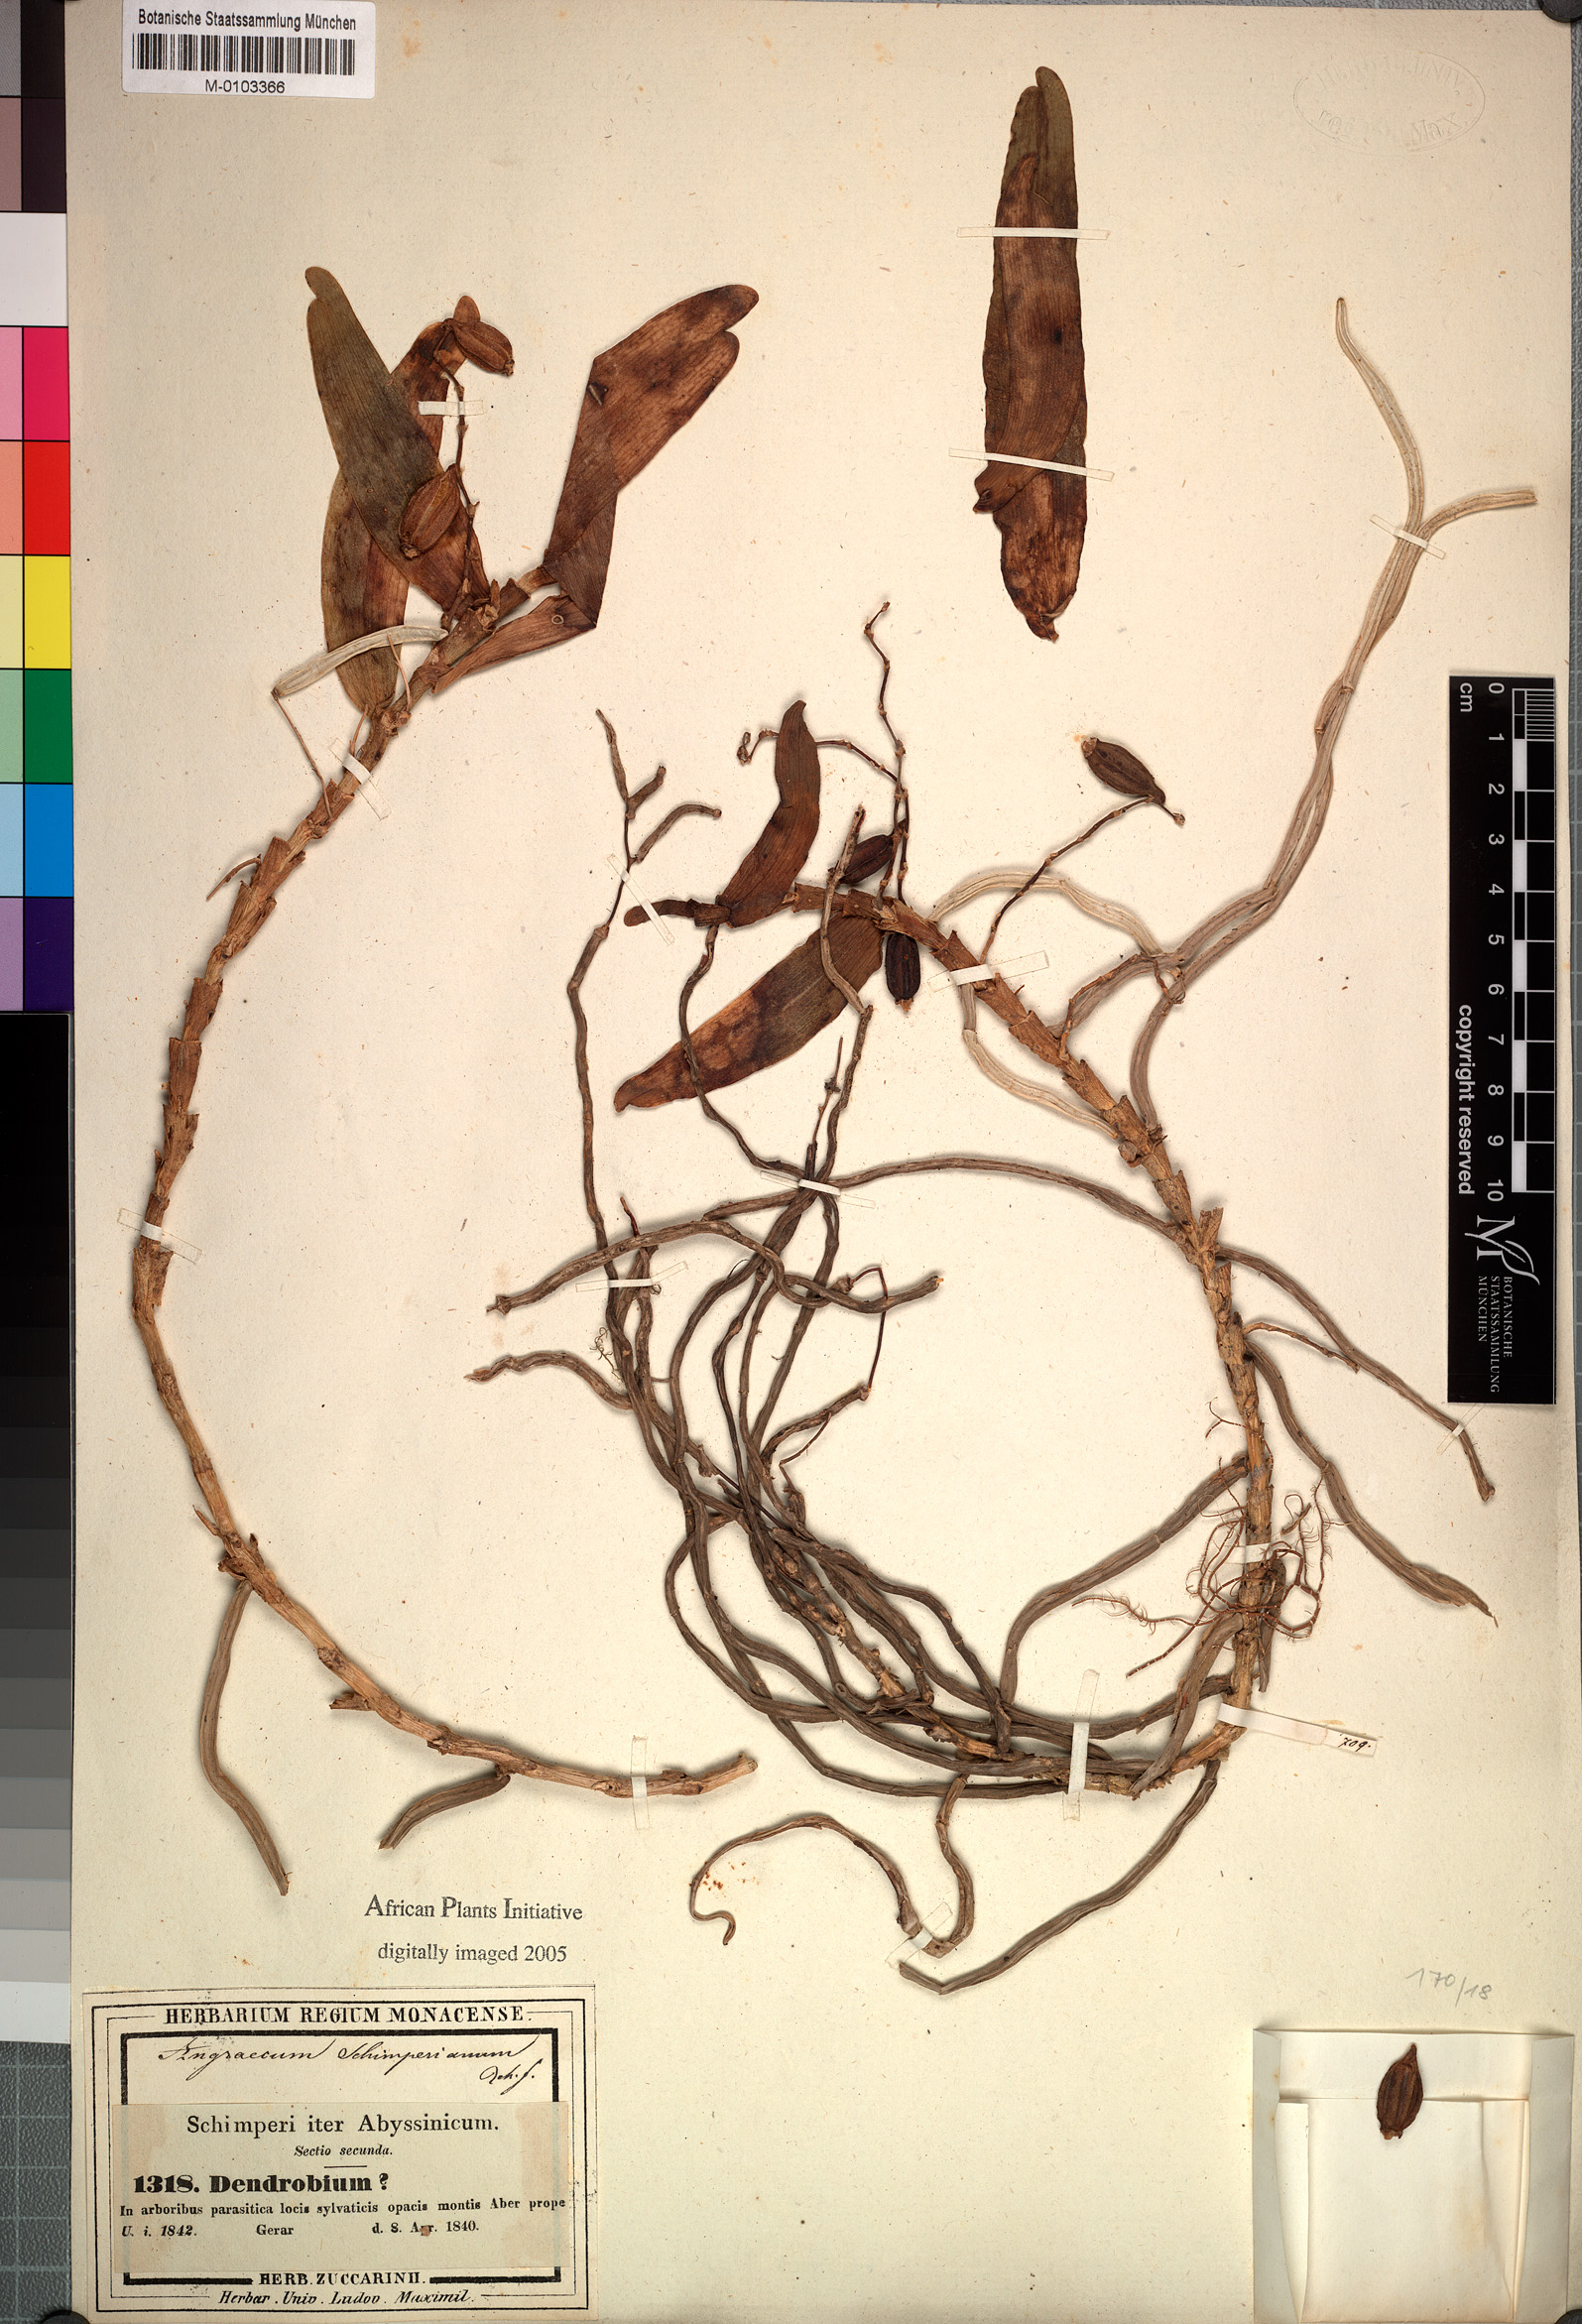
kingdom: Plantae
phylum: Tracheophyta
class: Liliopsida
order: Asparagales
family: Orchidaceae
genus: Rhipidoglossum
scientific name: Rhipidoglossum schimperianum
